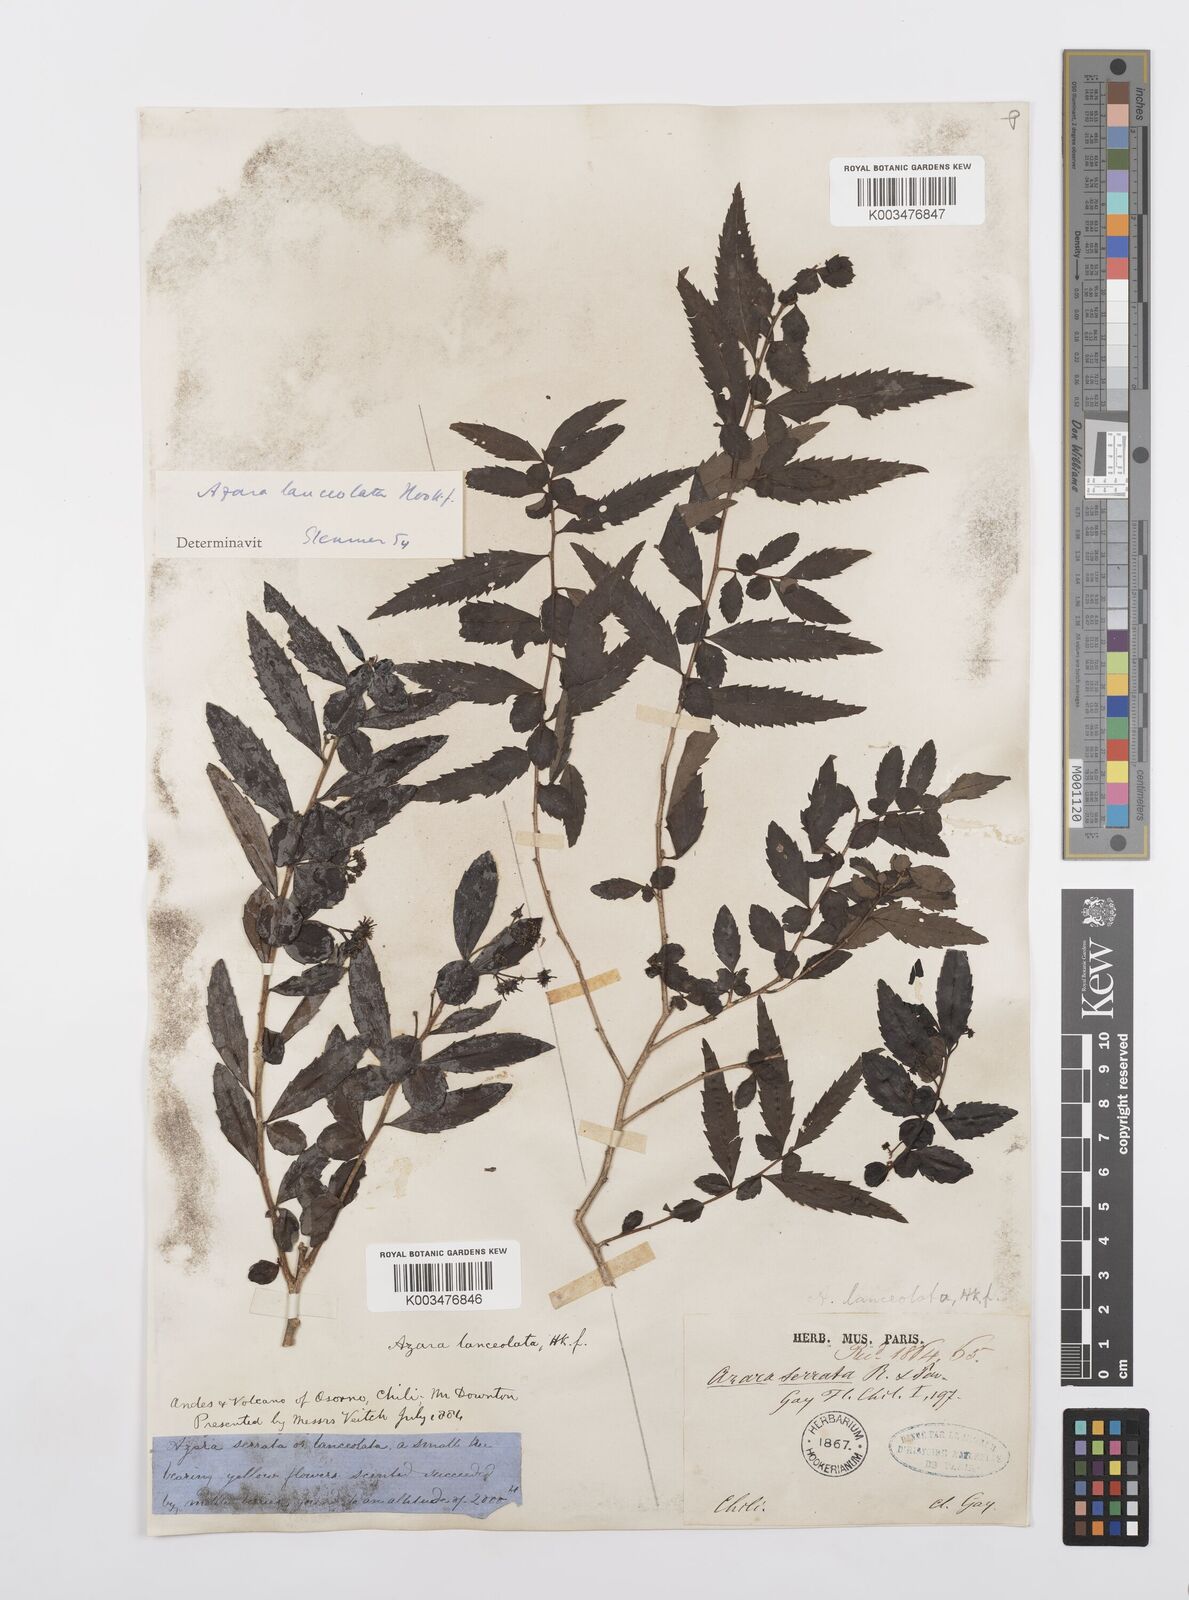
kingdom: Plantae
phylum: Tracheophyta
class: Magnoliopsida
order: Malpighiales
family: Salicaceae
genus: Azara
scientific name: Azara lanceolata
